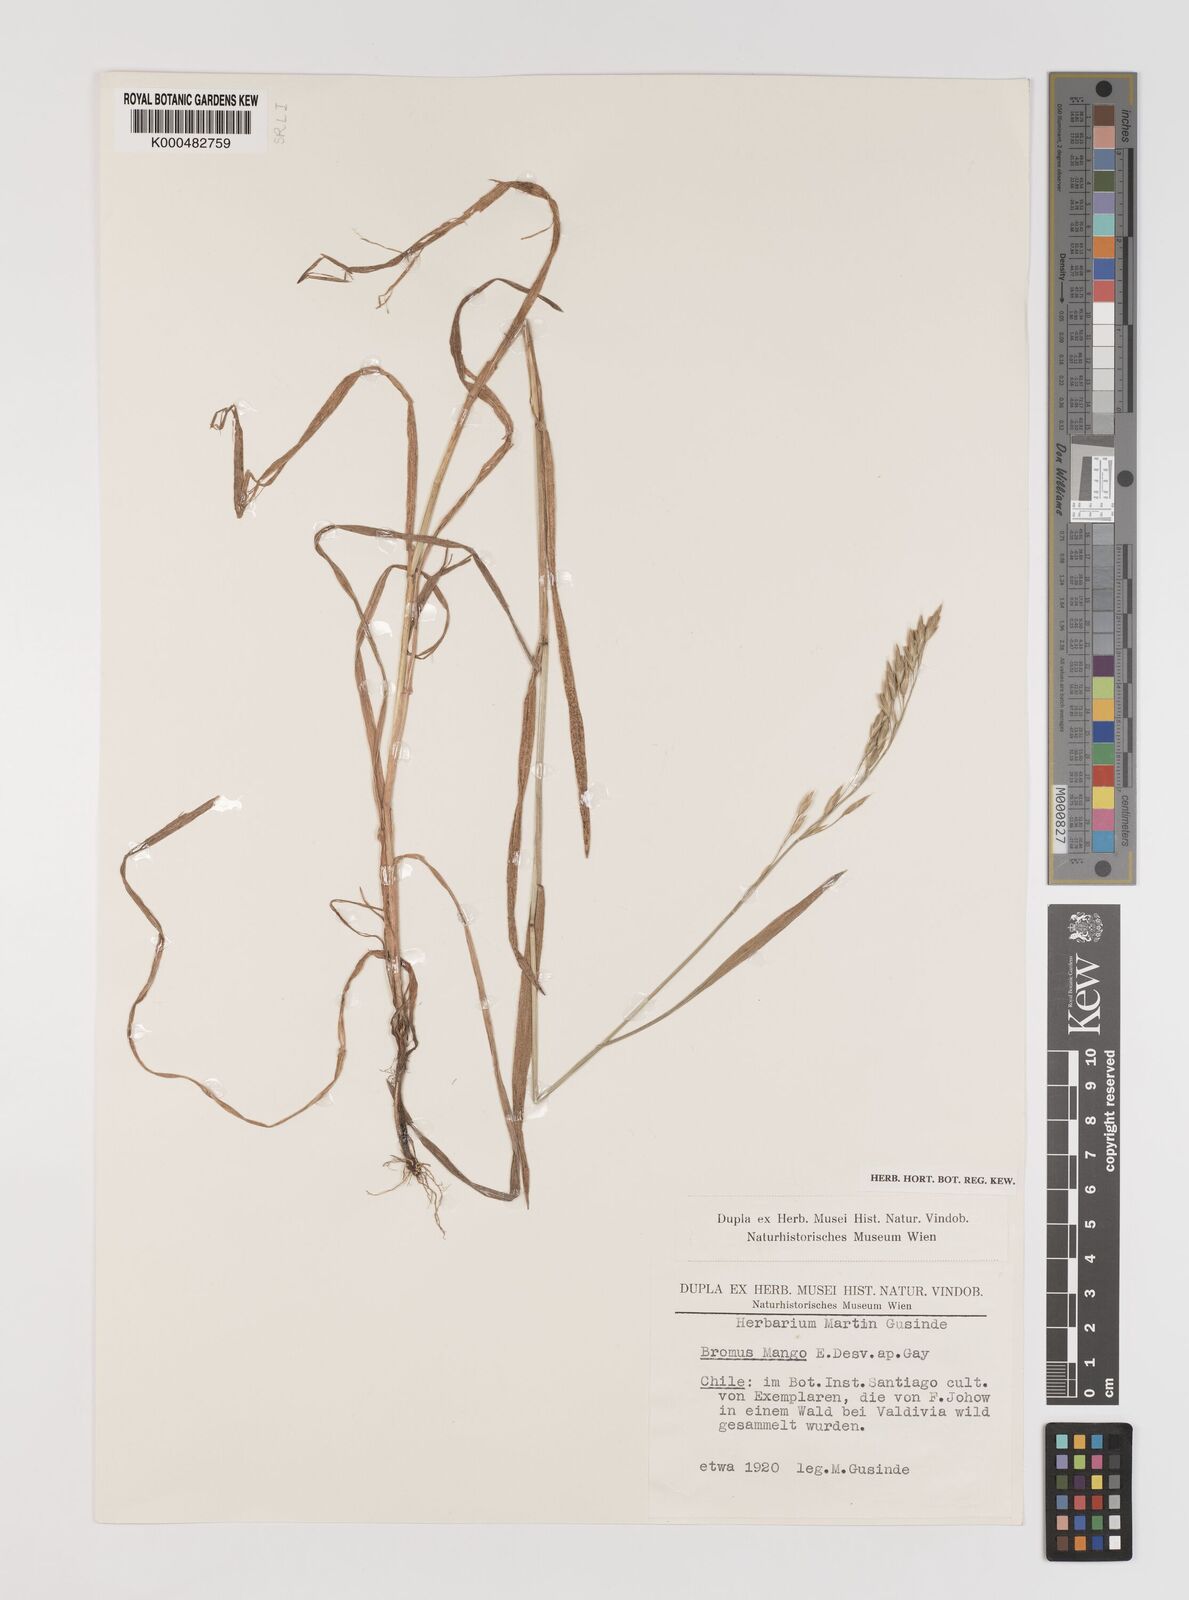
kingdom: Plantae
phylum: Tracheophyta
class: Liliopsida
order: Poales
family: Poaceae
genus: Bromus
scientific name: Bromus mango
